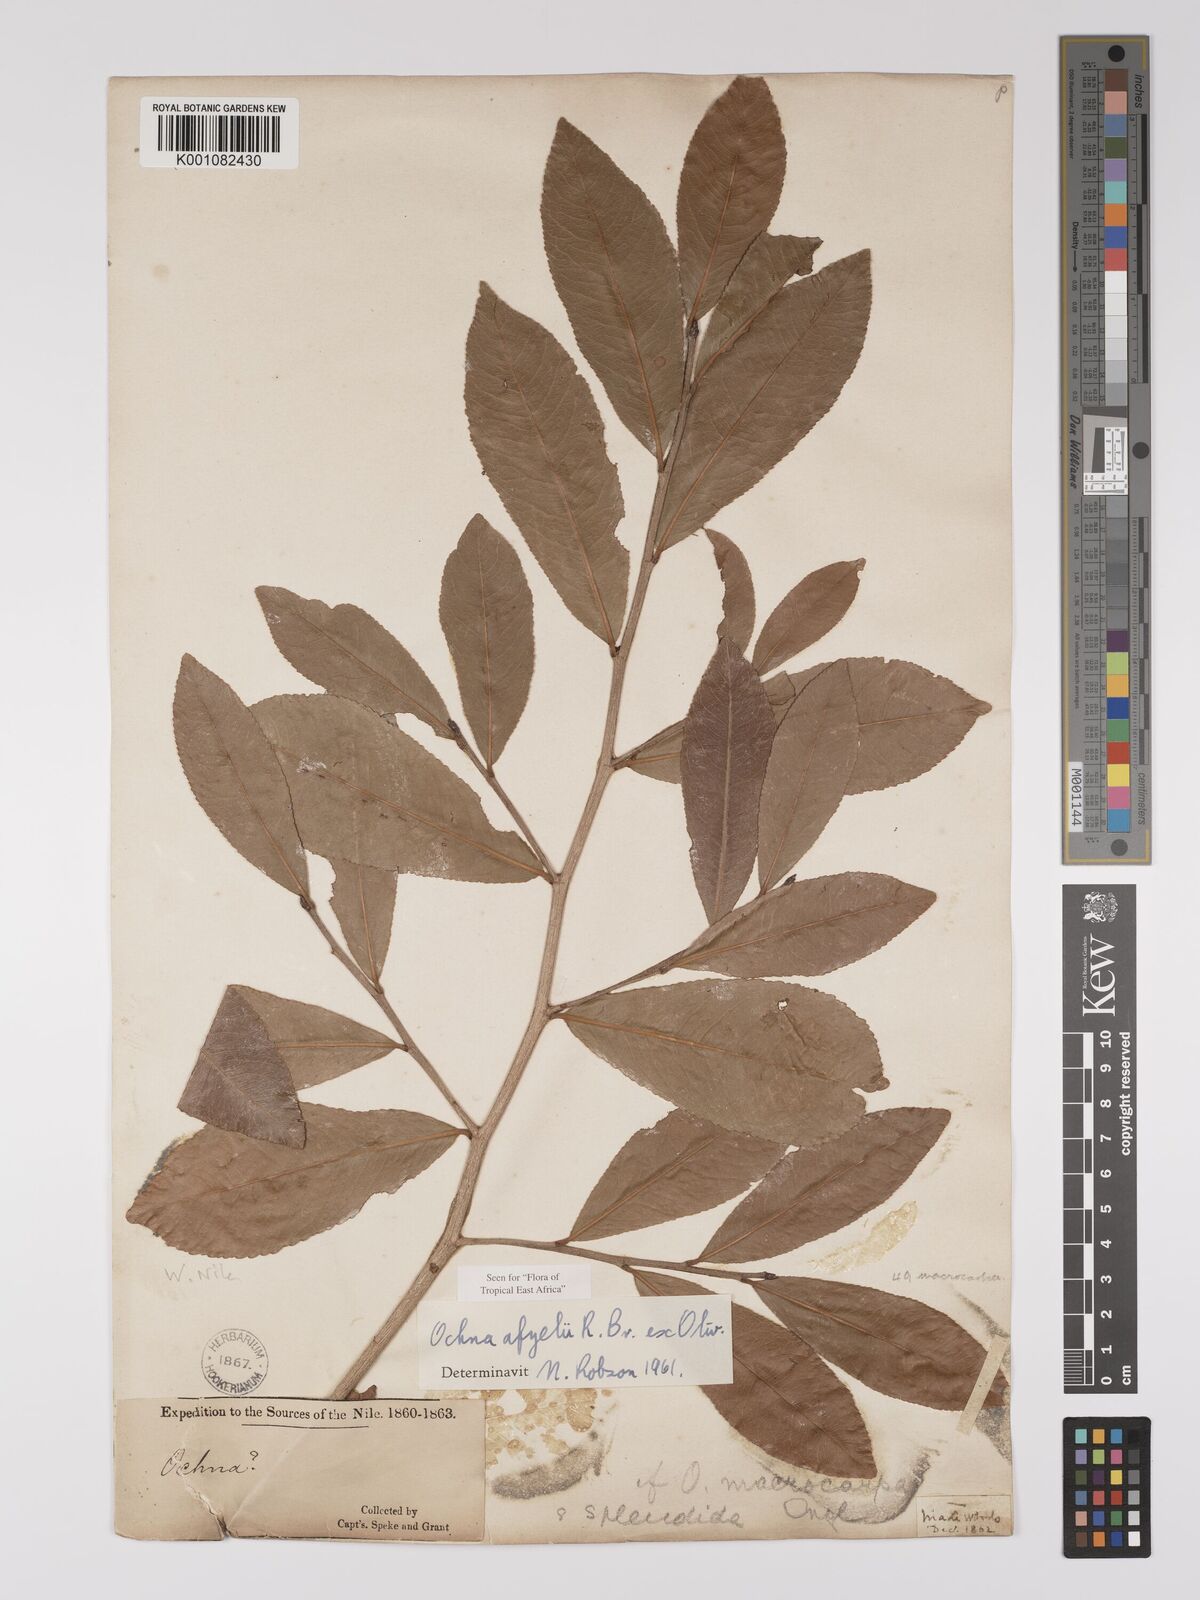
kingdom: Plantae
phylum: Tracheophyta
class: Magnoliopsida
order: Malpighiales
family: Ochnaceae
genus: Ochna
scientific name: Ochna afzelii
